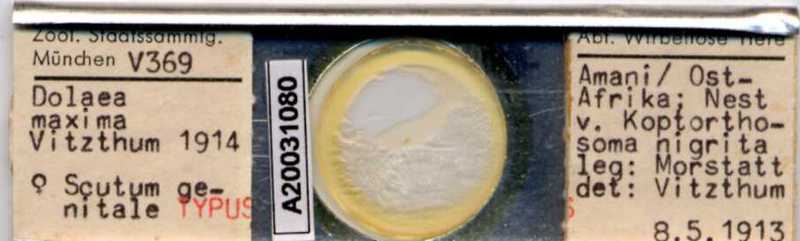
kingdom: Animalia
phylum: Arthropoda
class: Arachnida
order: Mesostigmata
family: Laelapidae
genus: Dinogamasus
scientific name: Dinogamasus
